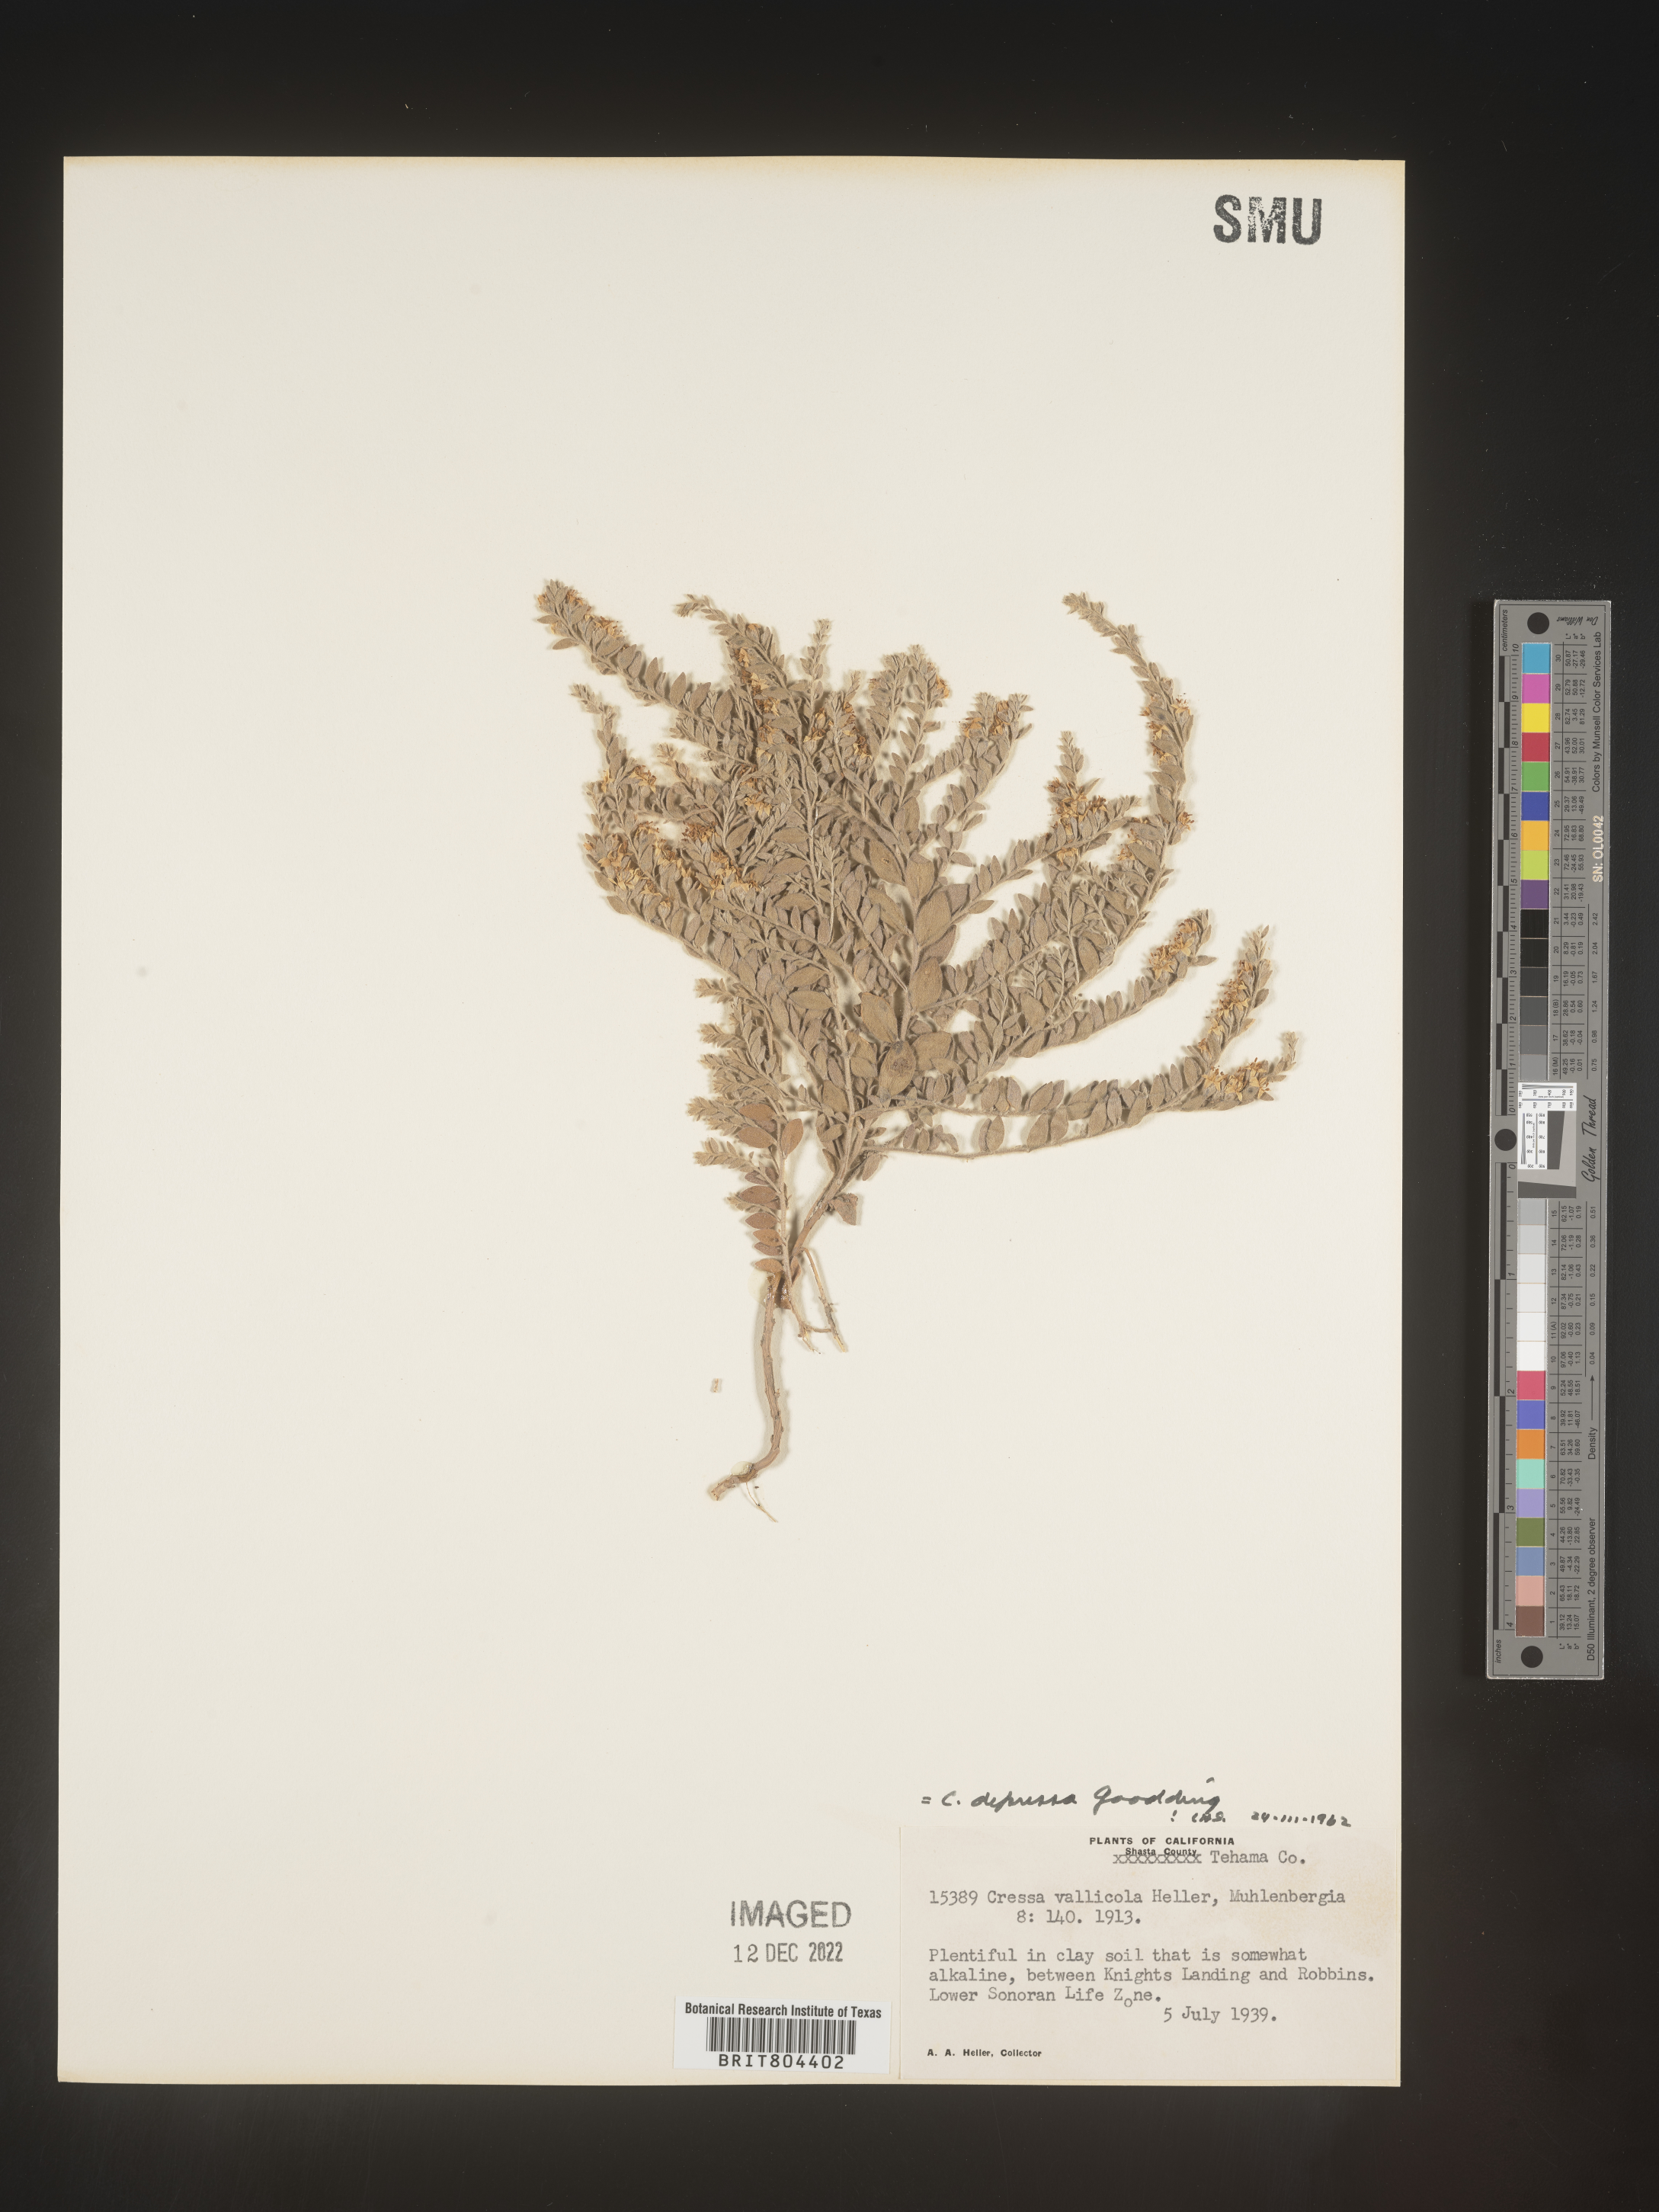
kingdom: Plantae
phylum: Tracheophyta
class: Magnoliopsida
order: Solanales
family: Convolvulaceae
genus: Cressa
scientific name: Cressa
